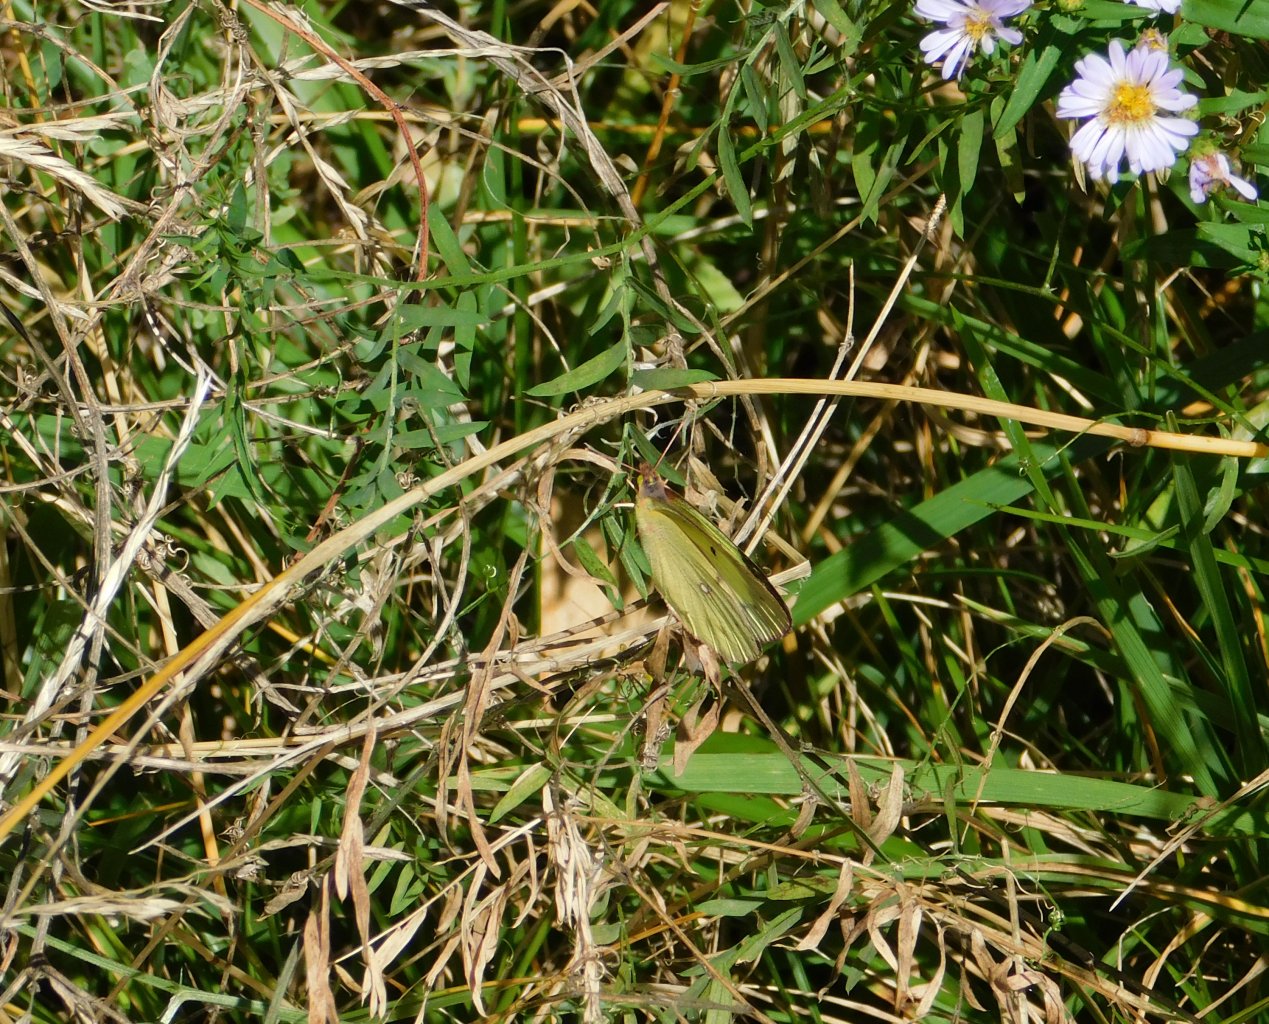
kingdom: Animalia
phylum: Arthropoda
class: Insecta
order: Lepidoptera
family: Pieridae
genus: Colias
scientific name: Colias philodice
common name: Clouded Sulphur
